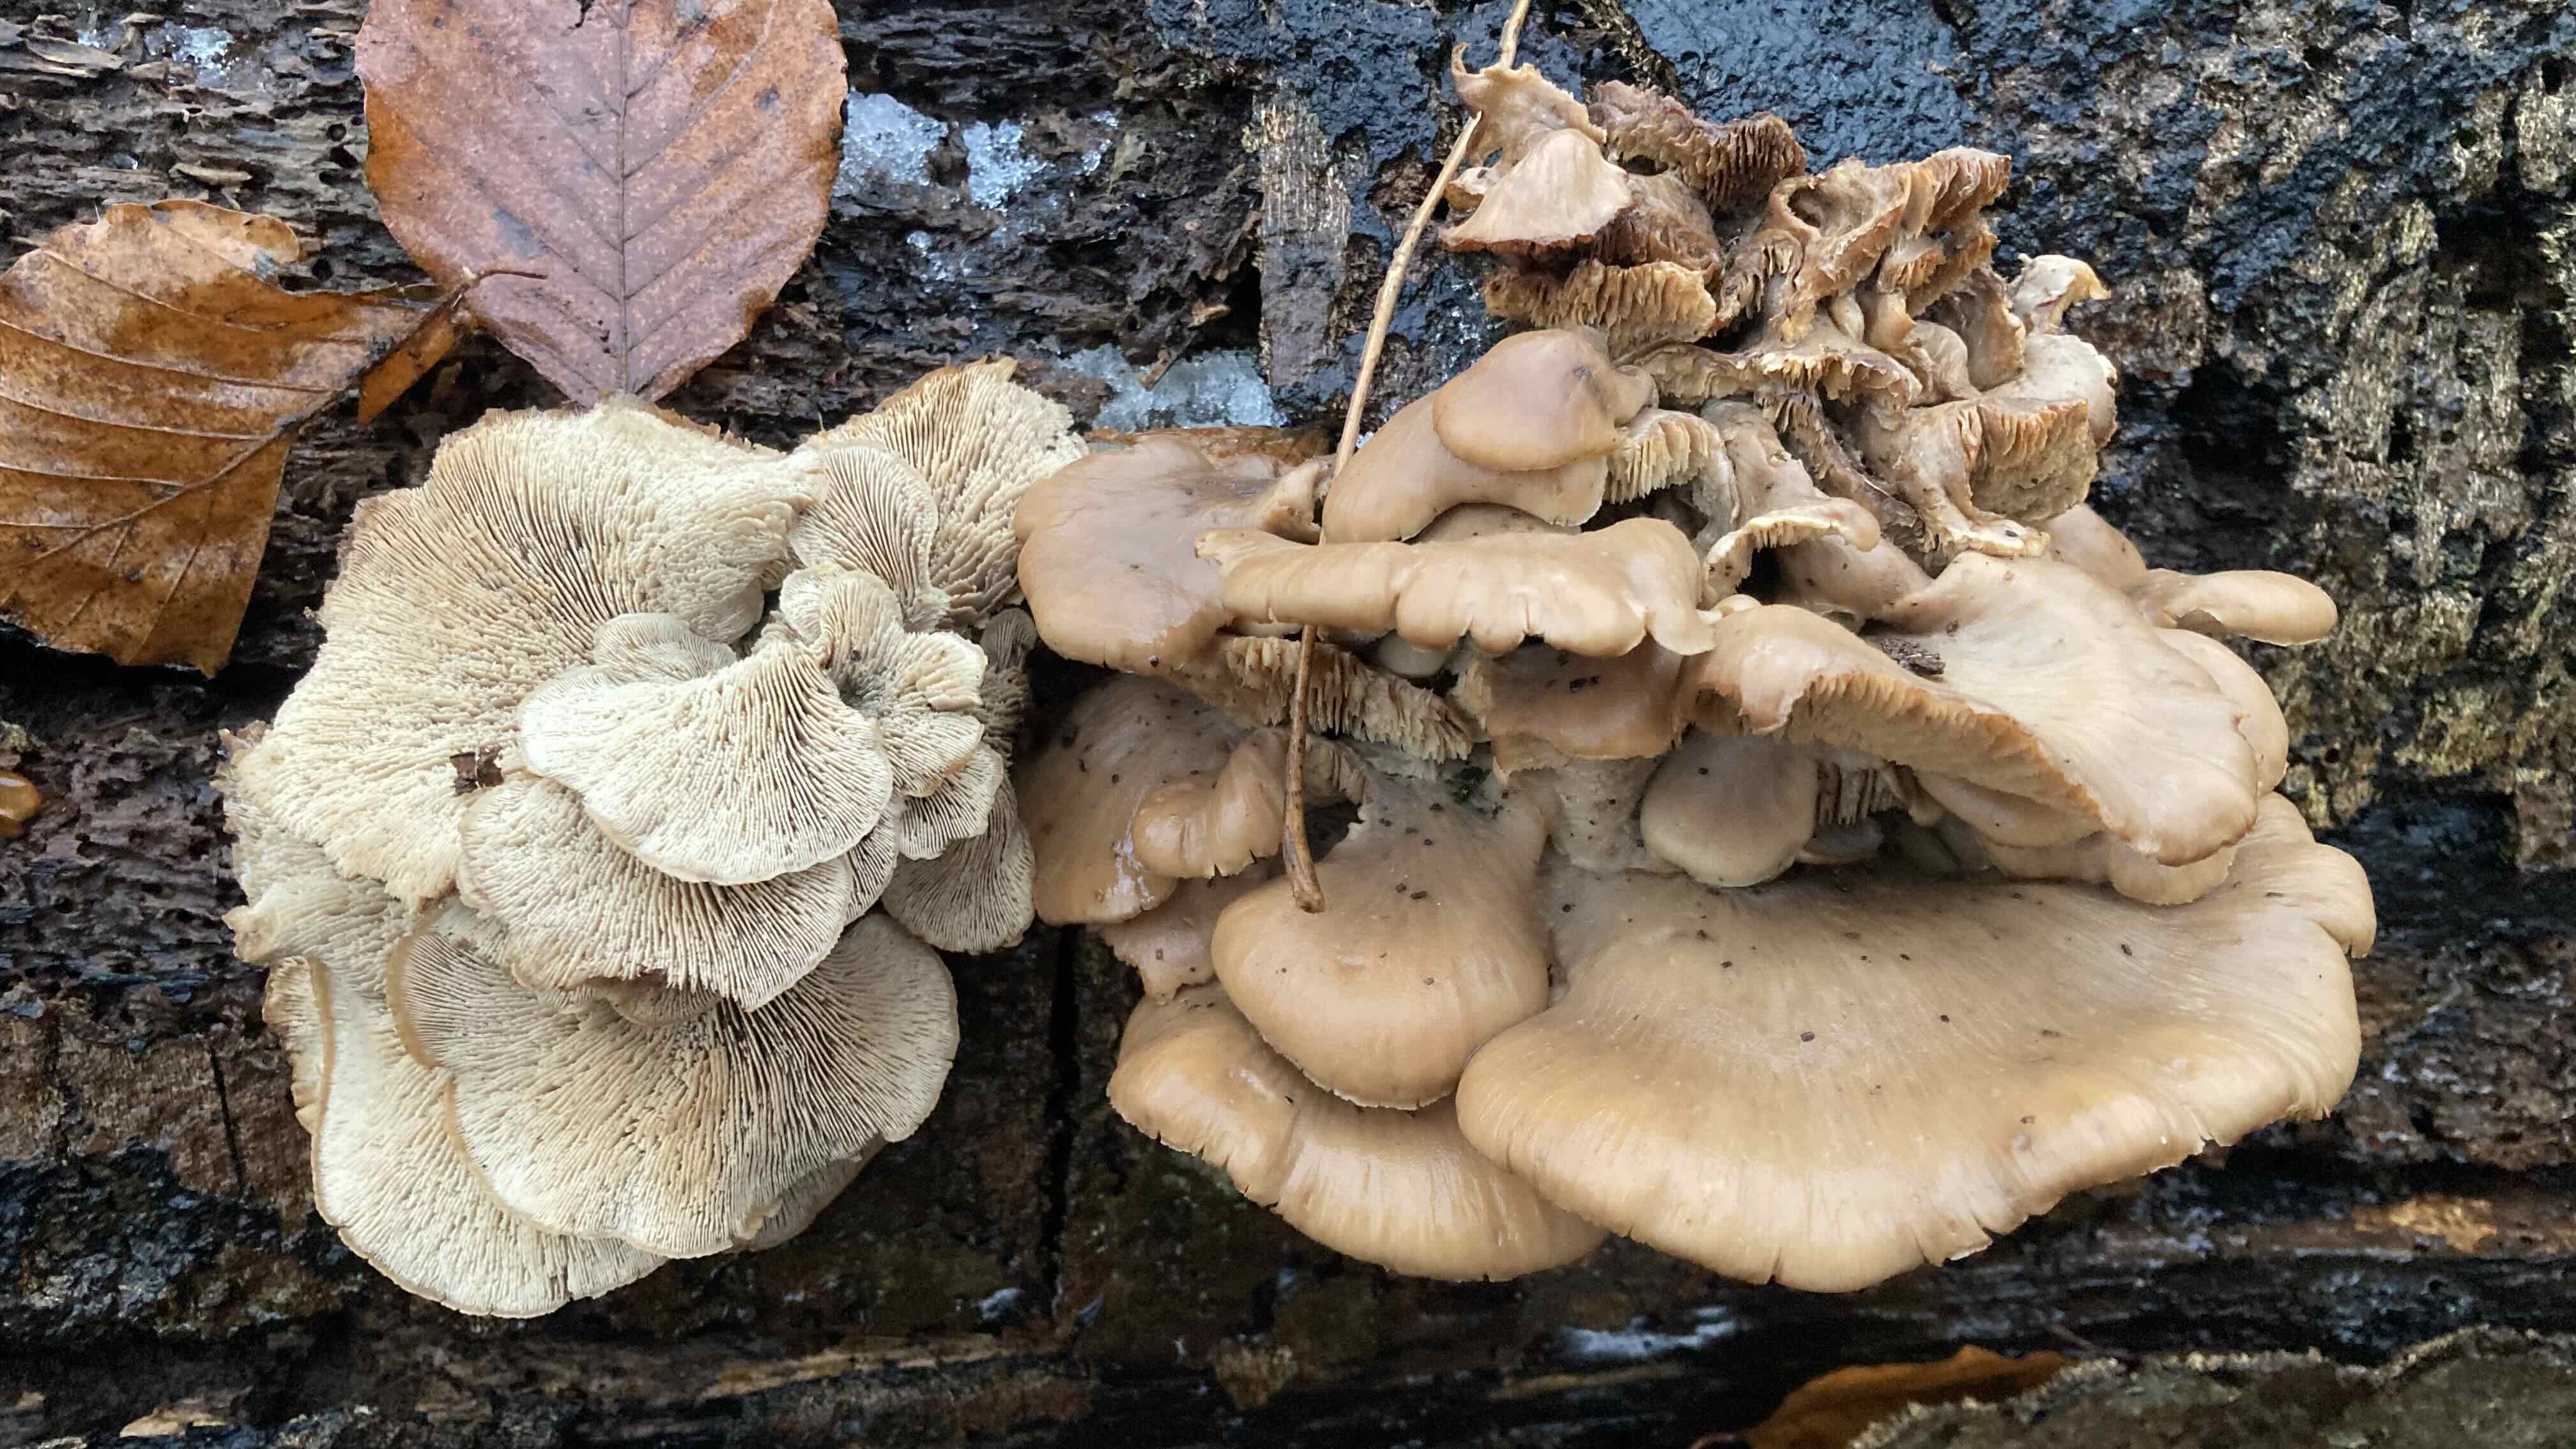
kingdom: Fungi
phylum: Basidiomycota
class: Agaricomycetes
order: Russulales
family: Auriscalpiaceae
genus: Lentinellus
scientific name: Lentinellus ursinus
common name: børstehåret savbladhat
